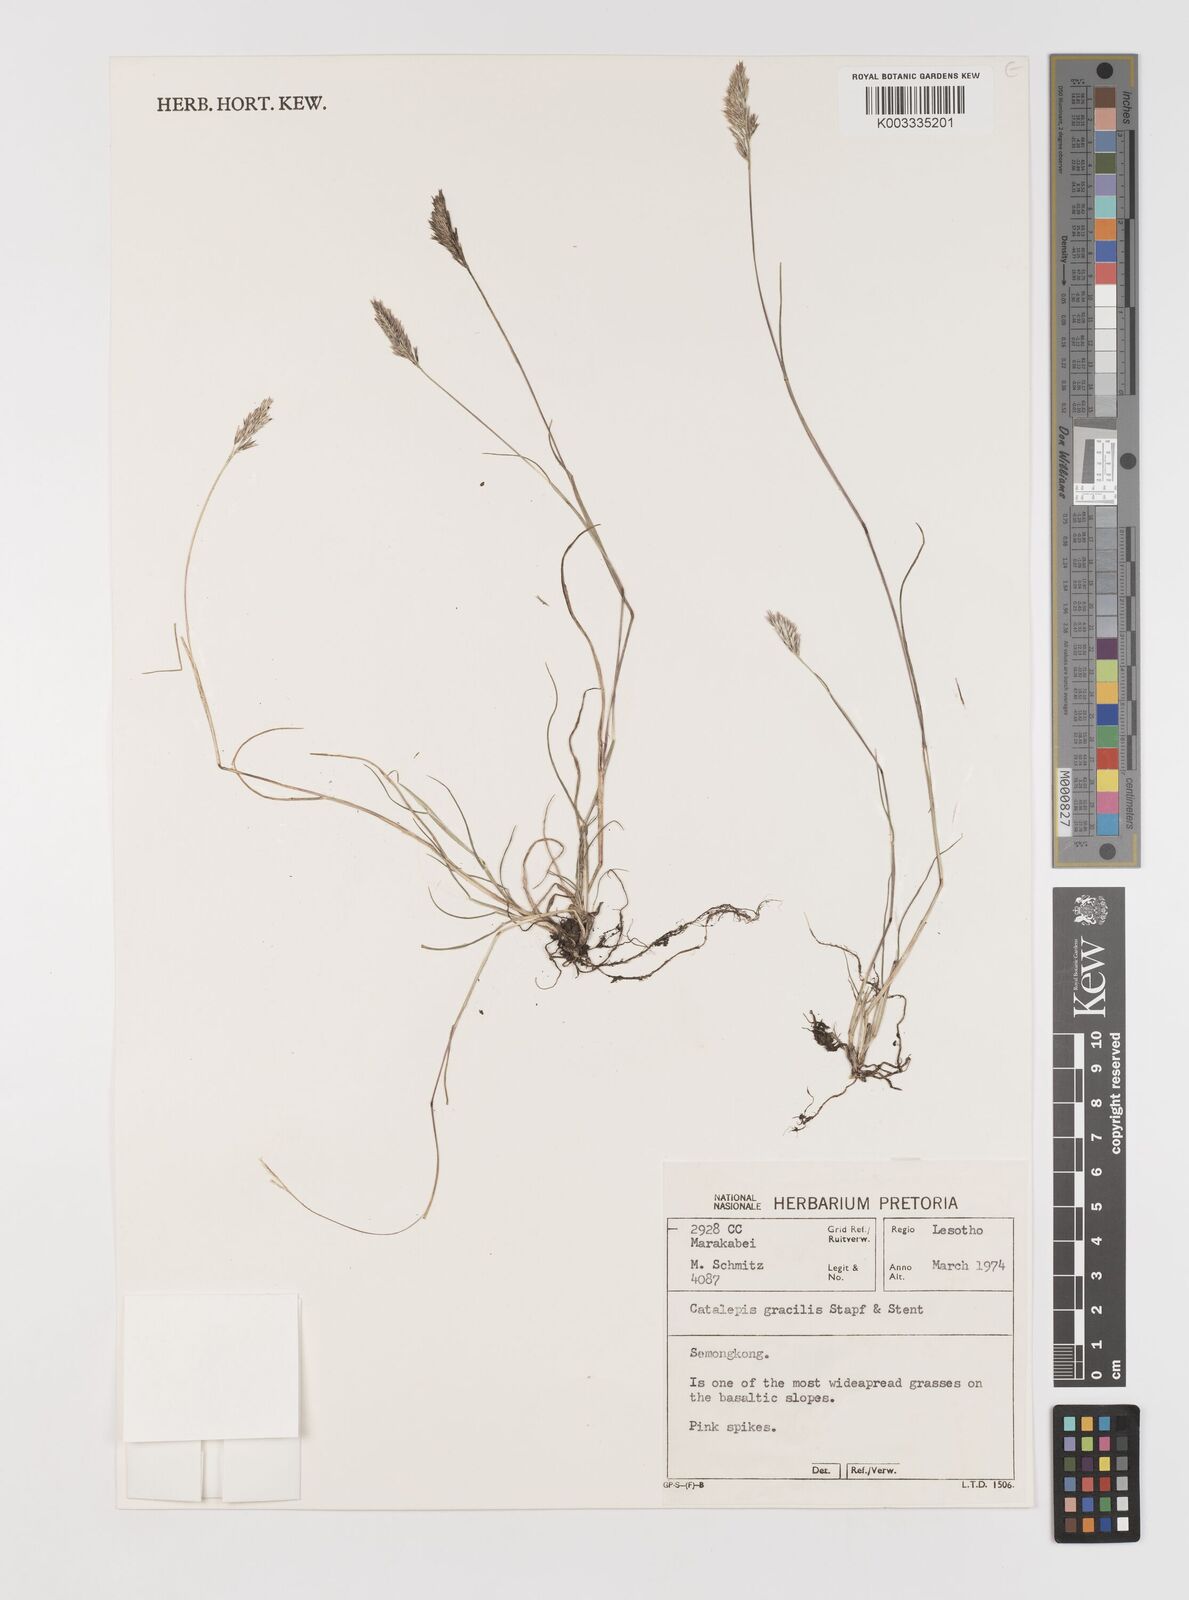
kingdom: Plantae
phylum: Tracheophyta
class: Liliopsida
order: Poales
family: Poaceae
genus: Catalepis
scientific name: Catalepis gracilis
